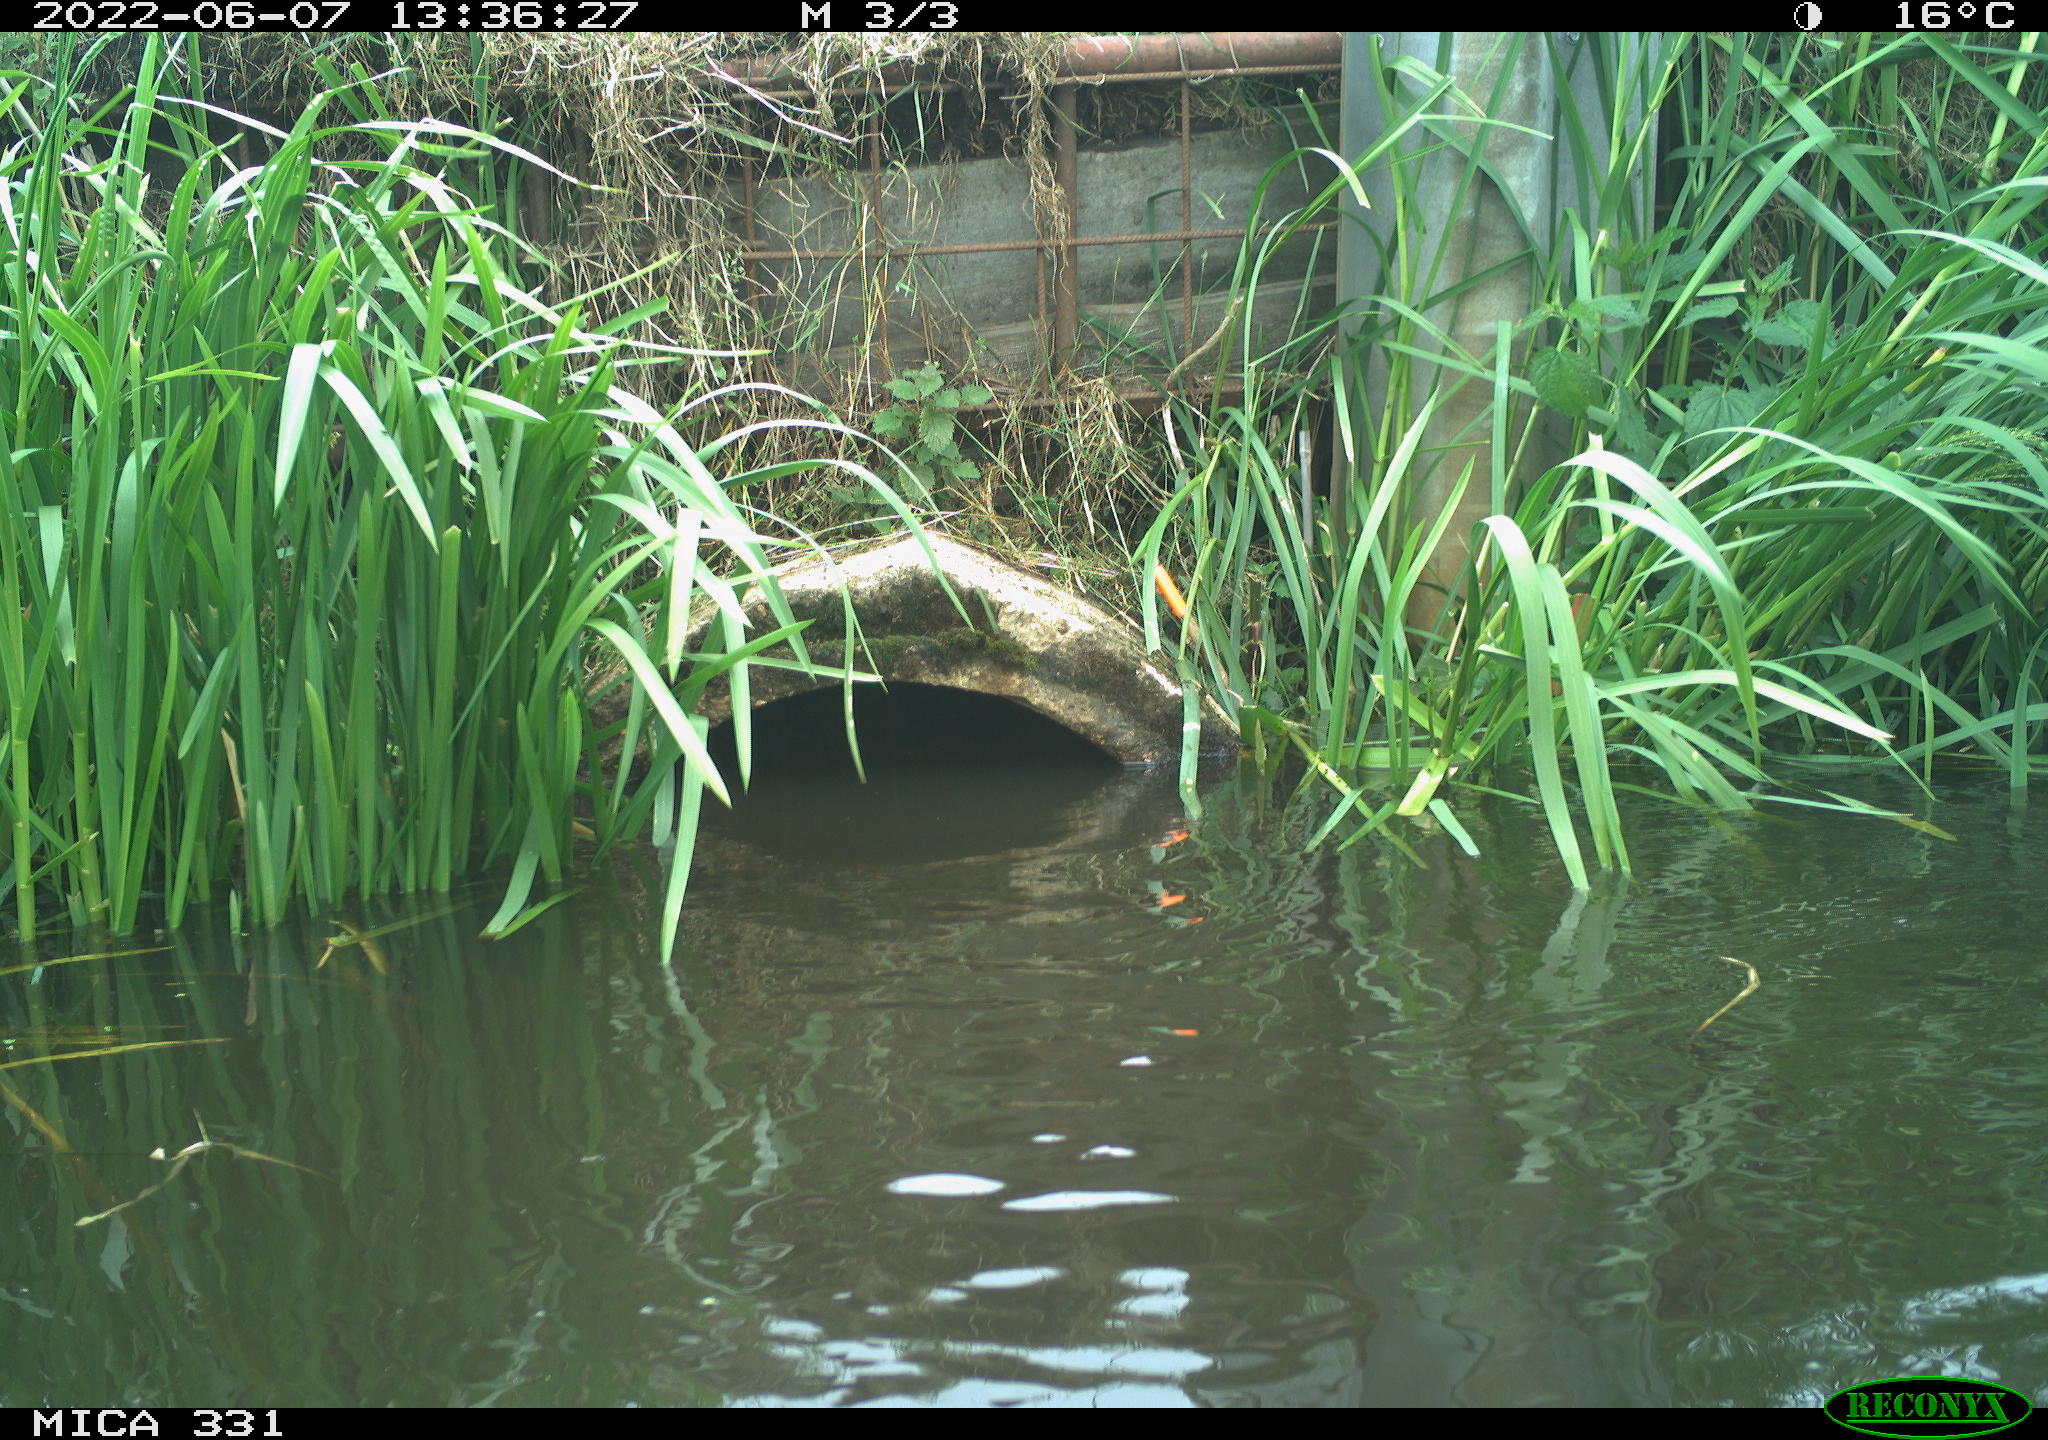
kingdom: Animalia
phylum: Chordata
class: Aves
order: Gruiformes
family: Rallidae
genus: Gallinula
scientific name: Gallinula chloropus
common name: Common moorhen
